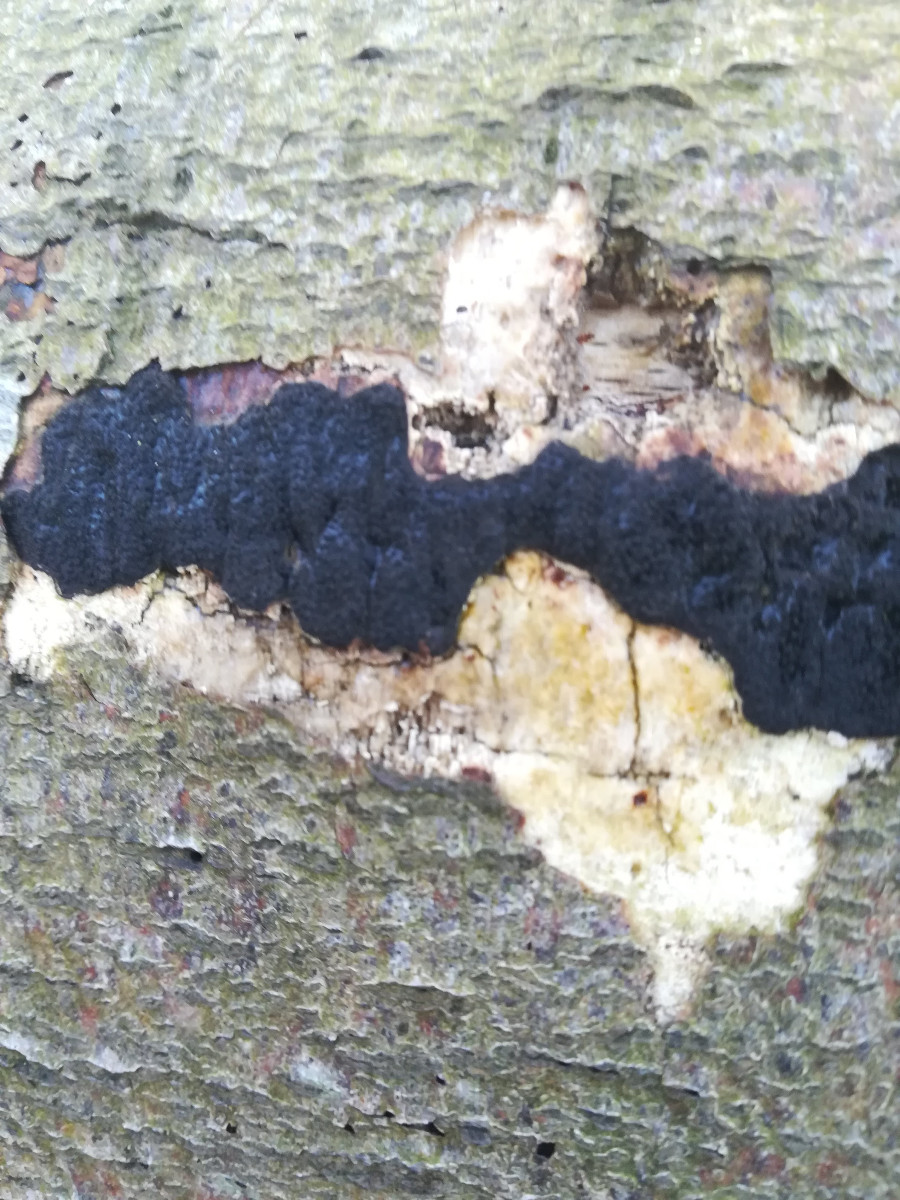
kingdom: Fungi
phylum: Ascomycota
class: Sordariomycetes
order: Xylariales
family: Diatrypaceae
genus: Eutypa
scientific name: Eutypa spinosa
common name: grov kulskorpe
